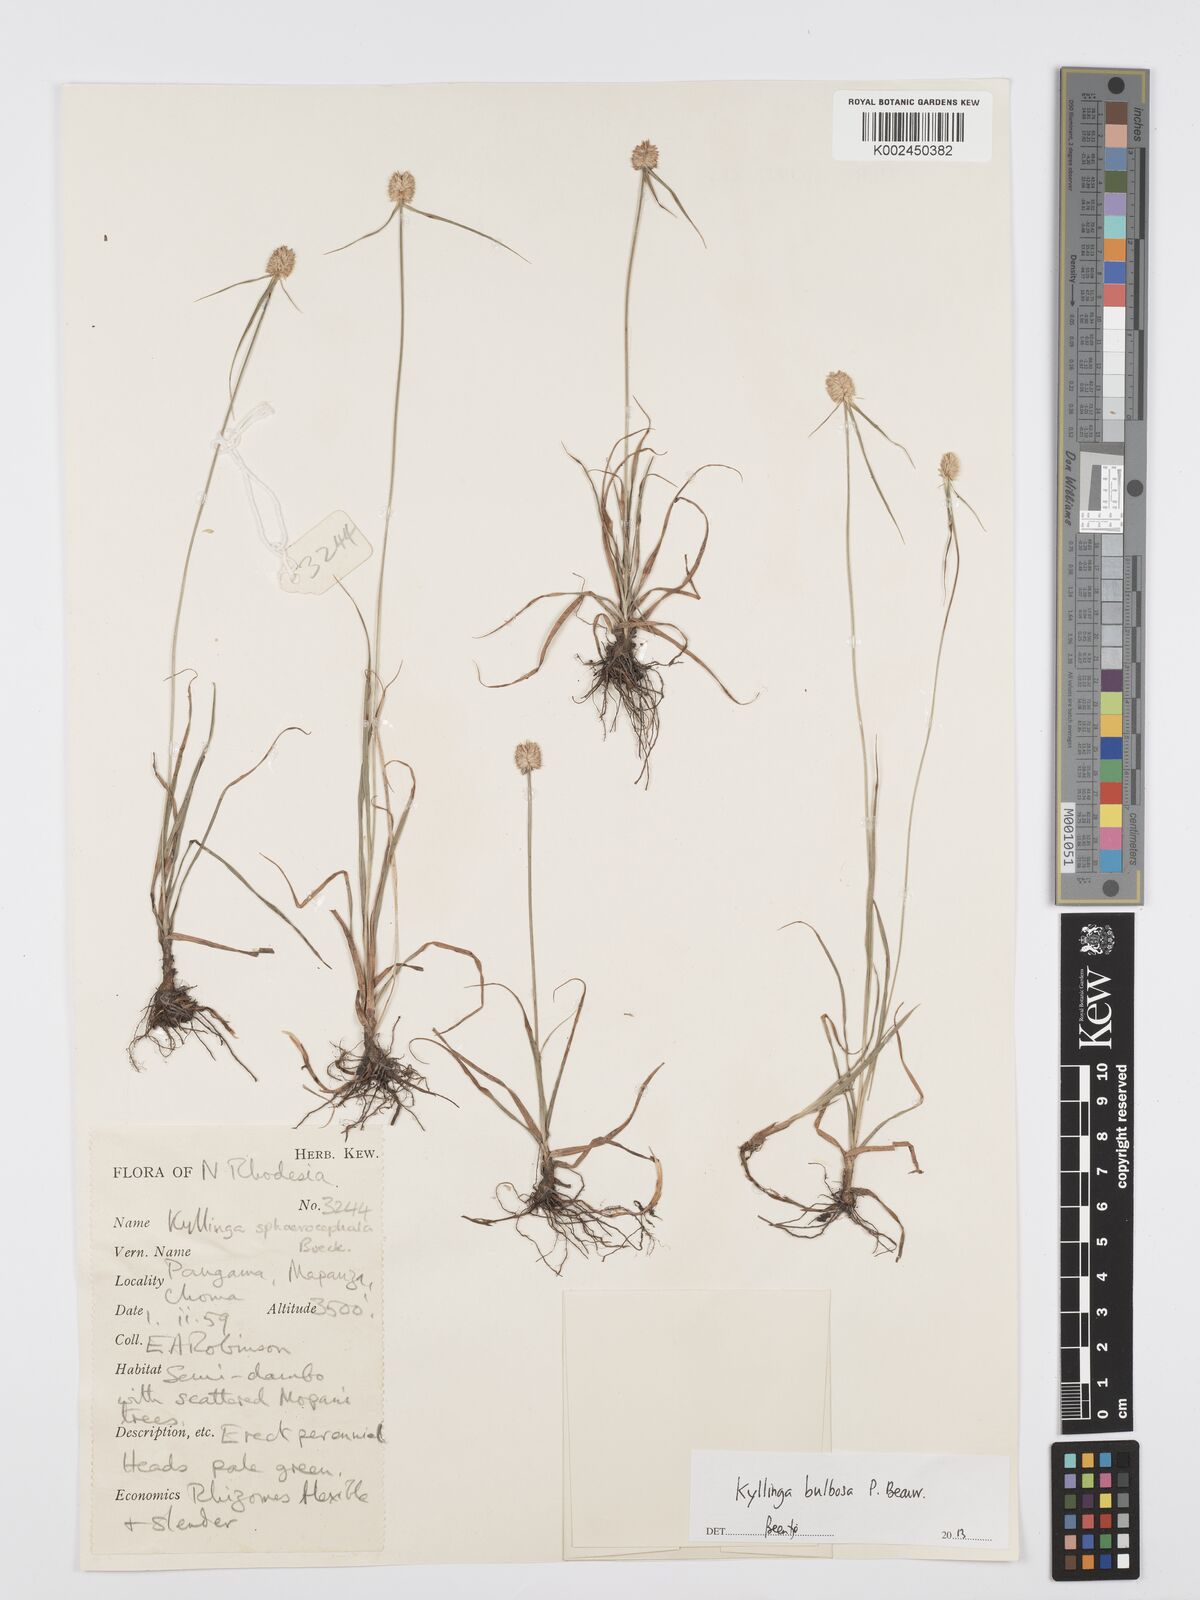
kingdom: Plantae
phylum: Tracheophyta
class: Liliopsida
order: Poales
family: Cyperaceae
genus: Cyperus
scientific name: Cyperus
